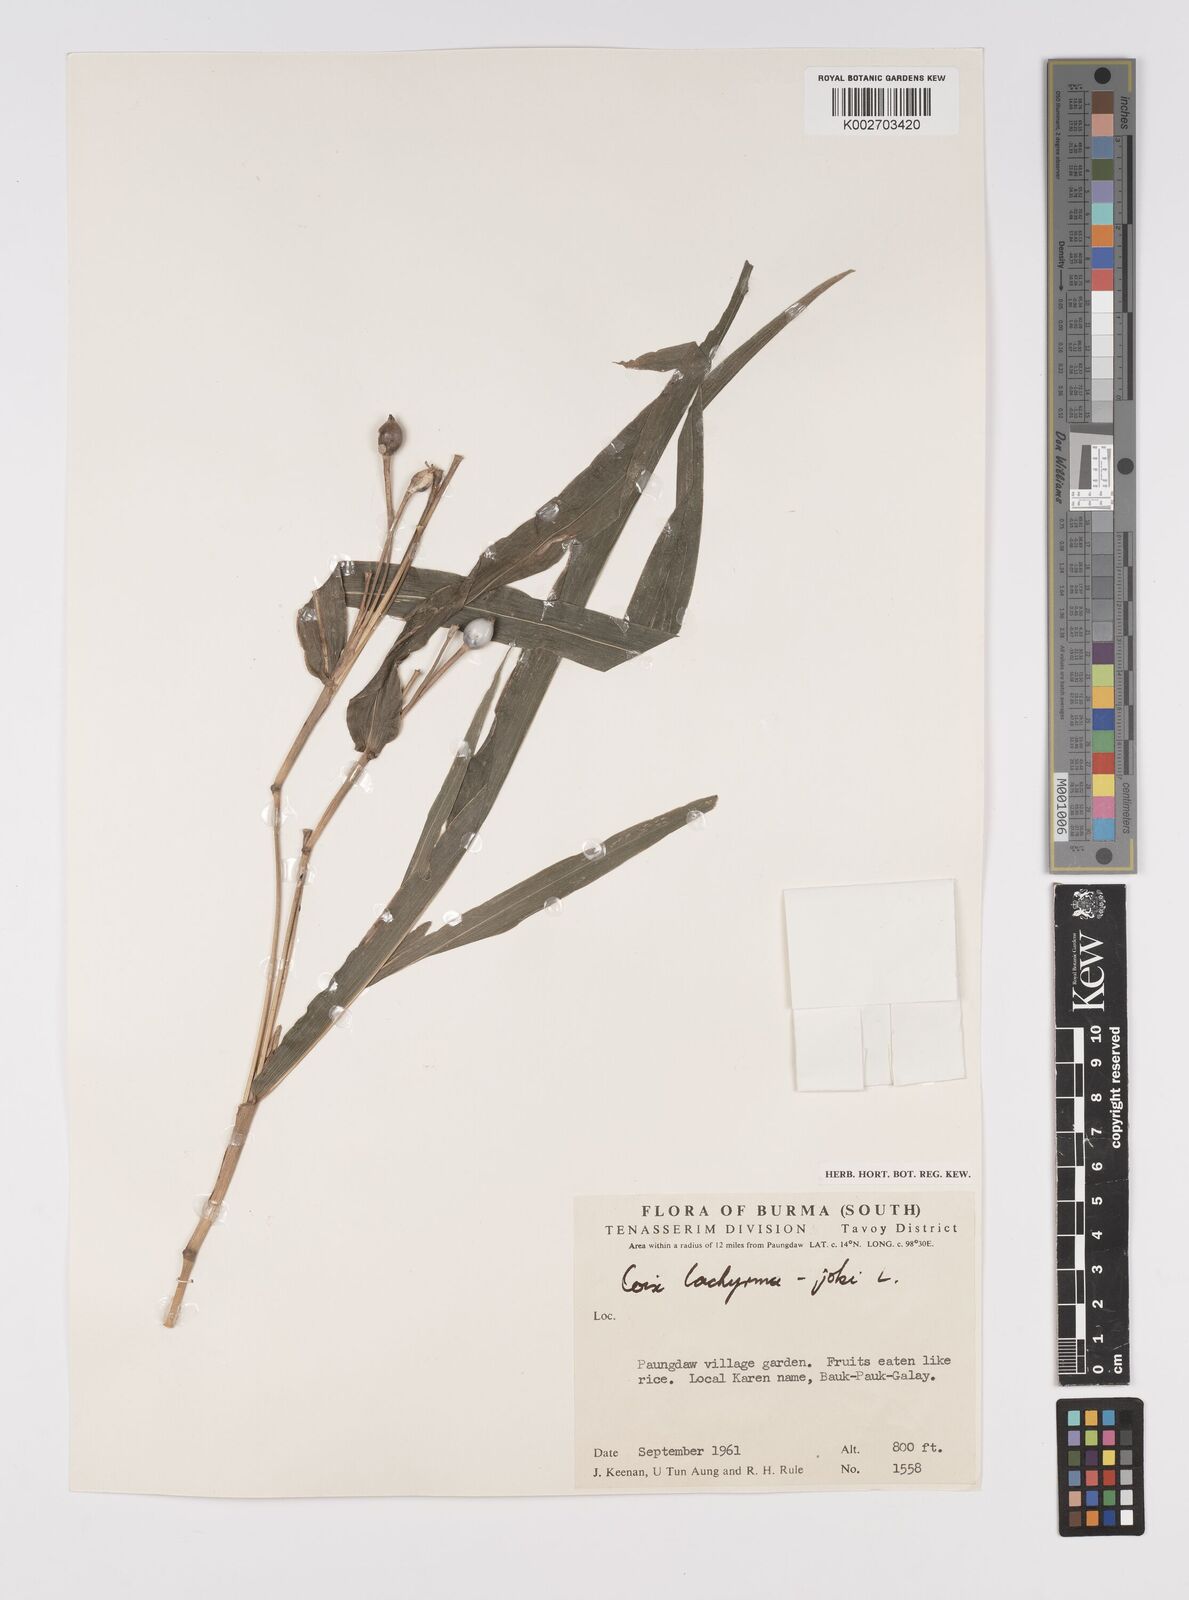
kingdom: Plantae
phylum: Tracheophyta
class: Liliopsida
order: Poales
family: Poaceae
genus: Coix
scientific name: Coix lacryma-jobi
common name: Job's tears
